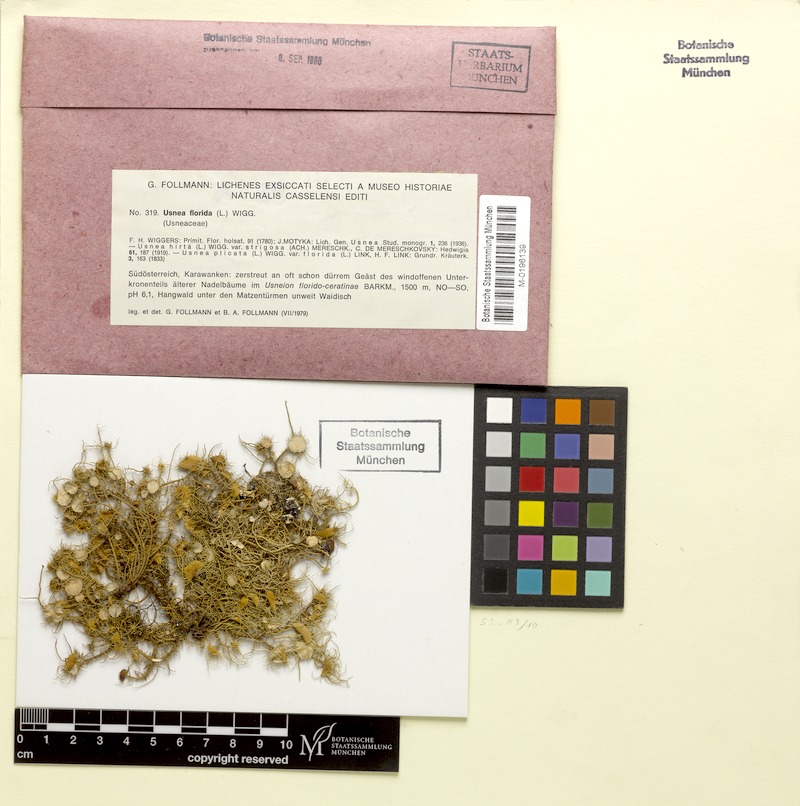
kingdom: Fungi
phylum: Ascomycota
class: Lecanoromycetes
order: Lecanorales
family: Parmeliaceae
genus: Usnea
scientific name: Usnea florida
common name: Witches' whiskers lichen
